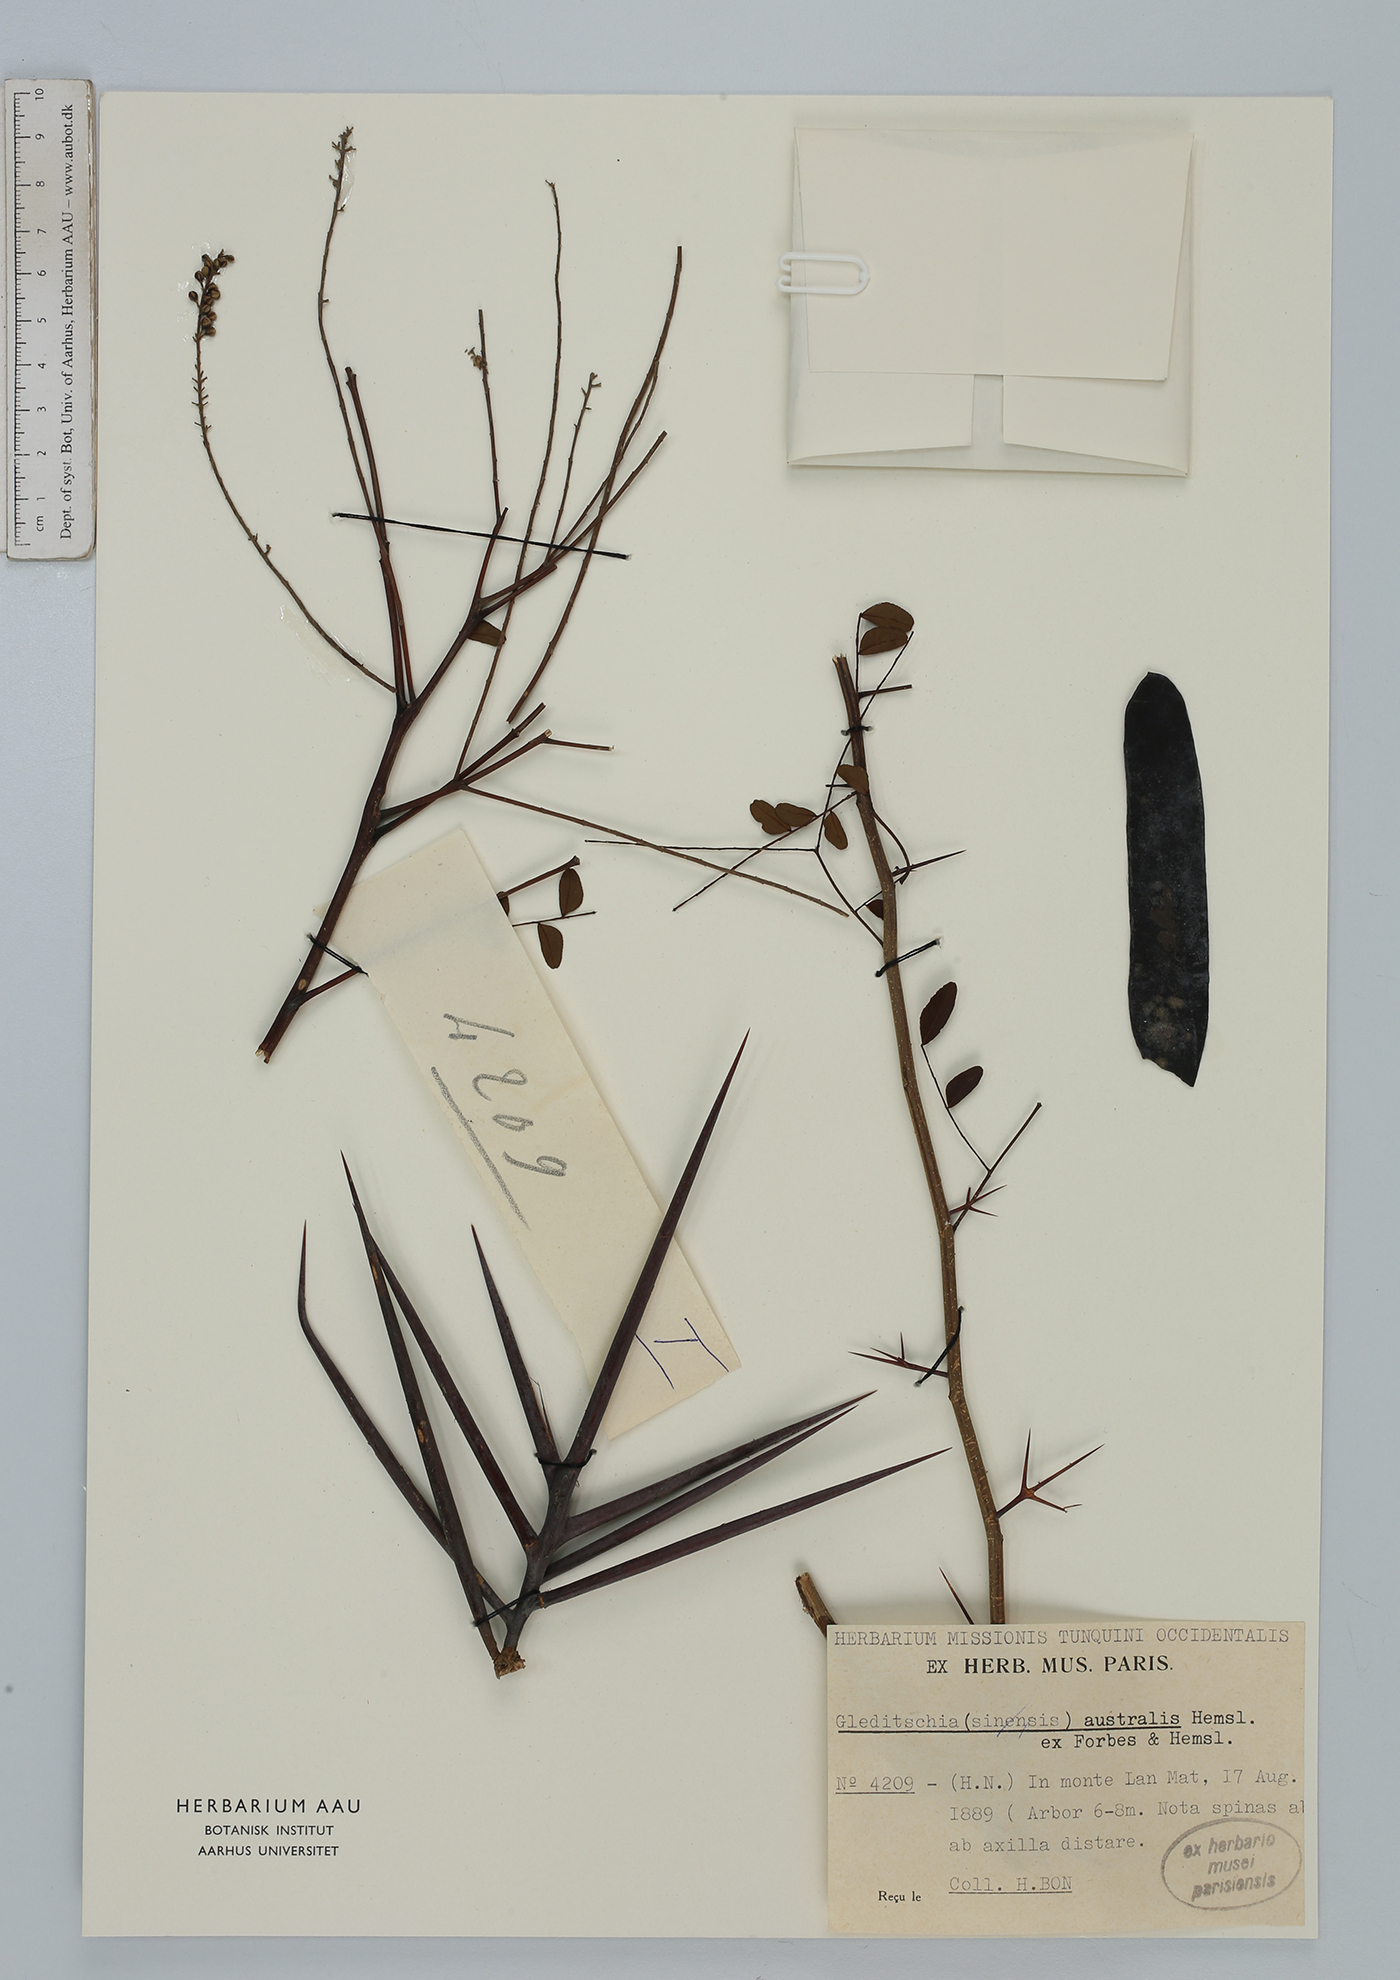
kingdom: Plantae
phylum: Tracheophyta
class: Magnoliopsida
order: Fabales
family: Fabaceae
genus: Gleditsia
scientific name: Gleditsia australis
